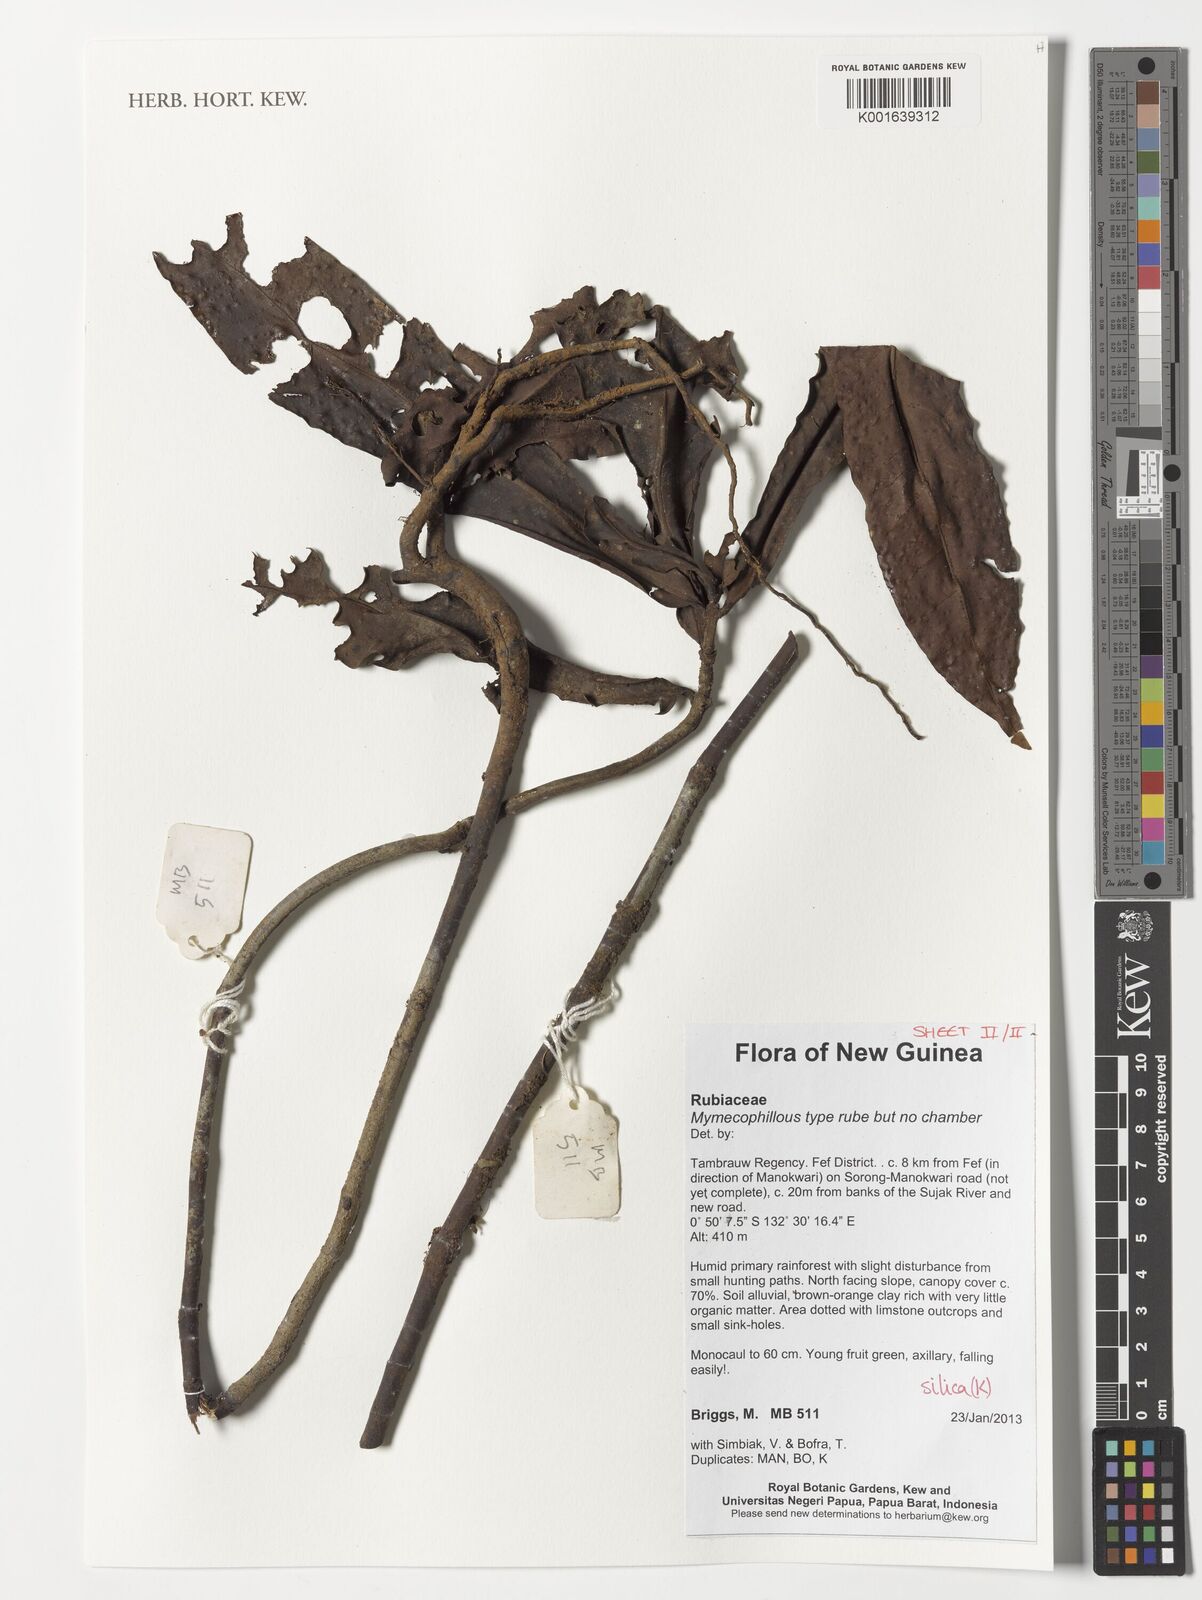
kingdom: Plantae
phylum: Tracheophyta
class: Magnoliopsida
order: Gentianales
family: Rubiaceae
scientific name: Rubiaceae
